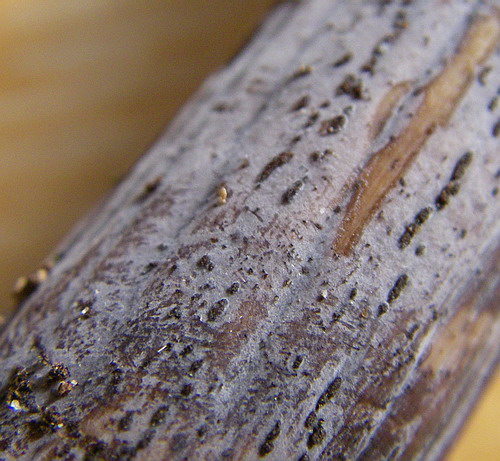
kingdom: Fungi
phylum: Basidiomycota
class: Tremellomycetes
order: Tremellales
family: Exidiaceae
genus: Exidiopsis
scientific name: Exidiopsis effusa
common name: smuk bævrehinde
